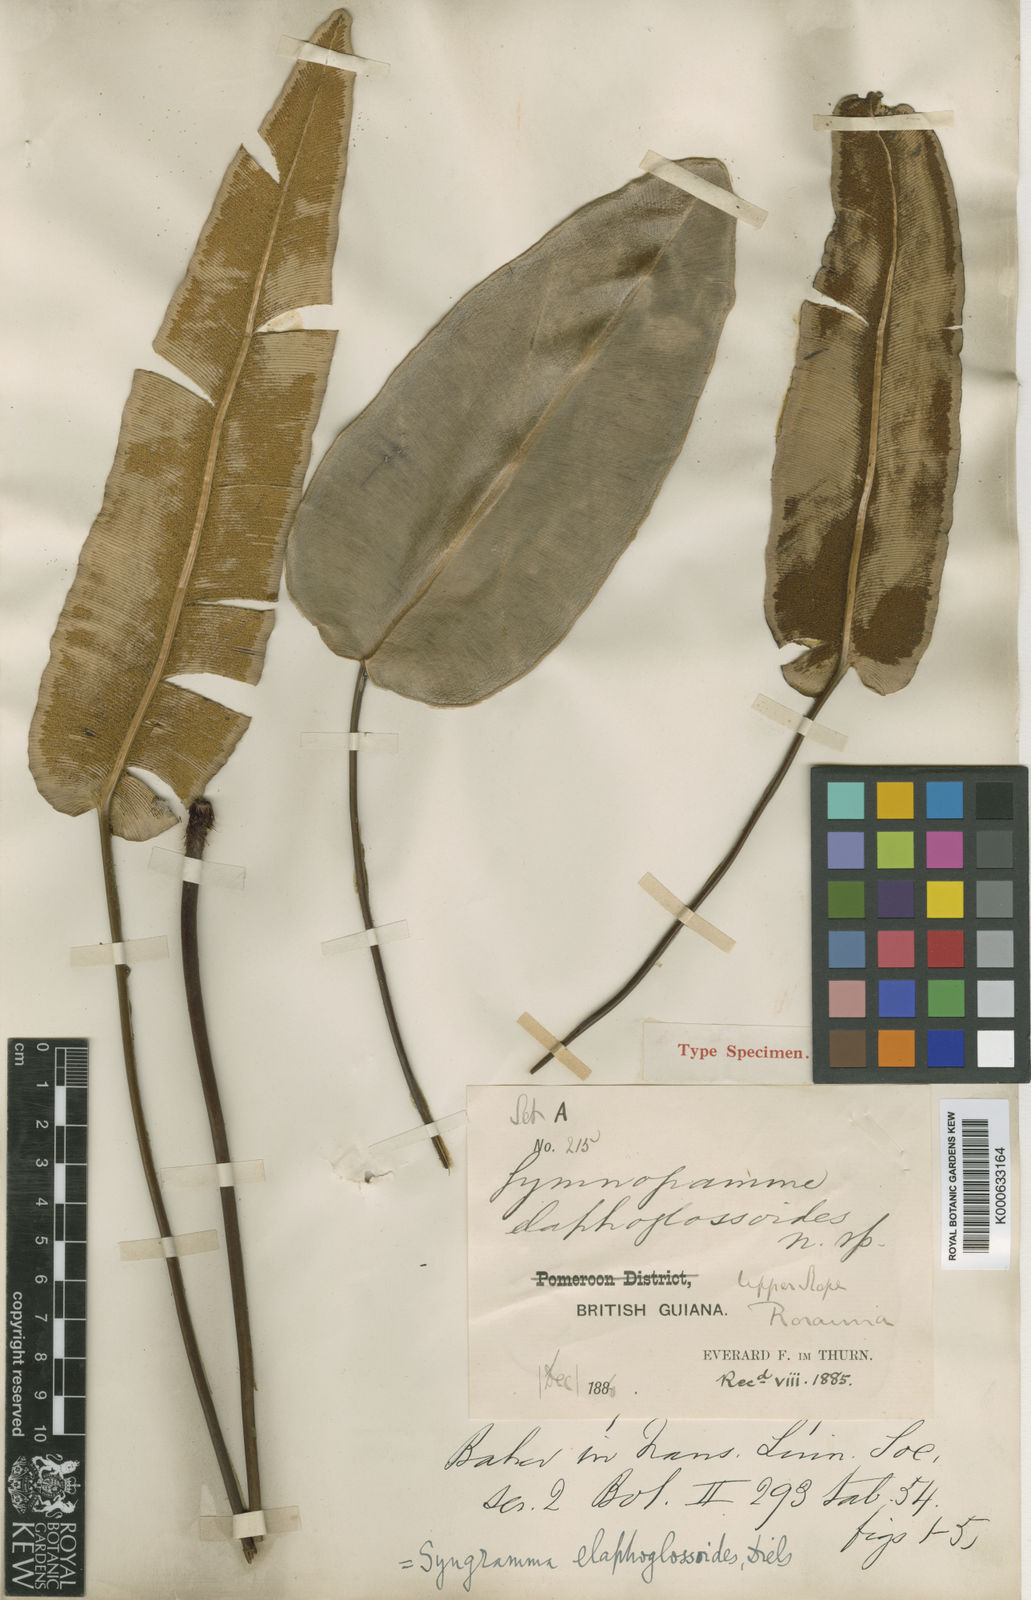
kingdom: Plantae
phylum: Tracheophyta
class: Polypodiopsida
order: Polypodiales
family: Pteridaceae
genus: Pterozonium
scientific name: Pterozonium elaphoglossoides
